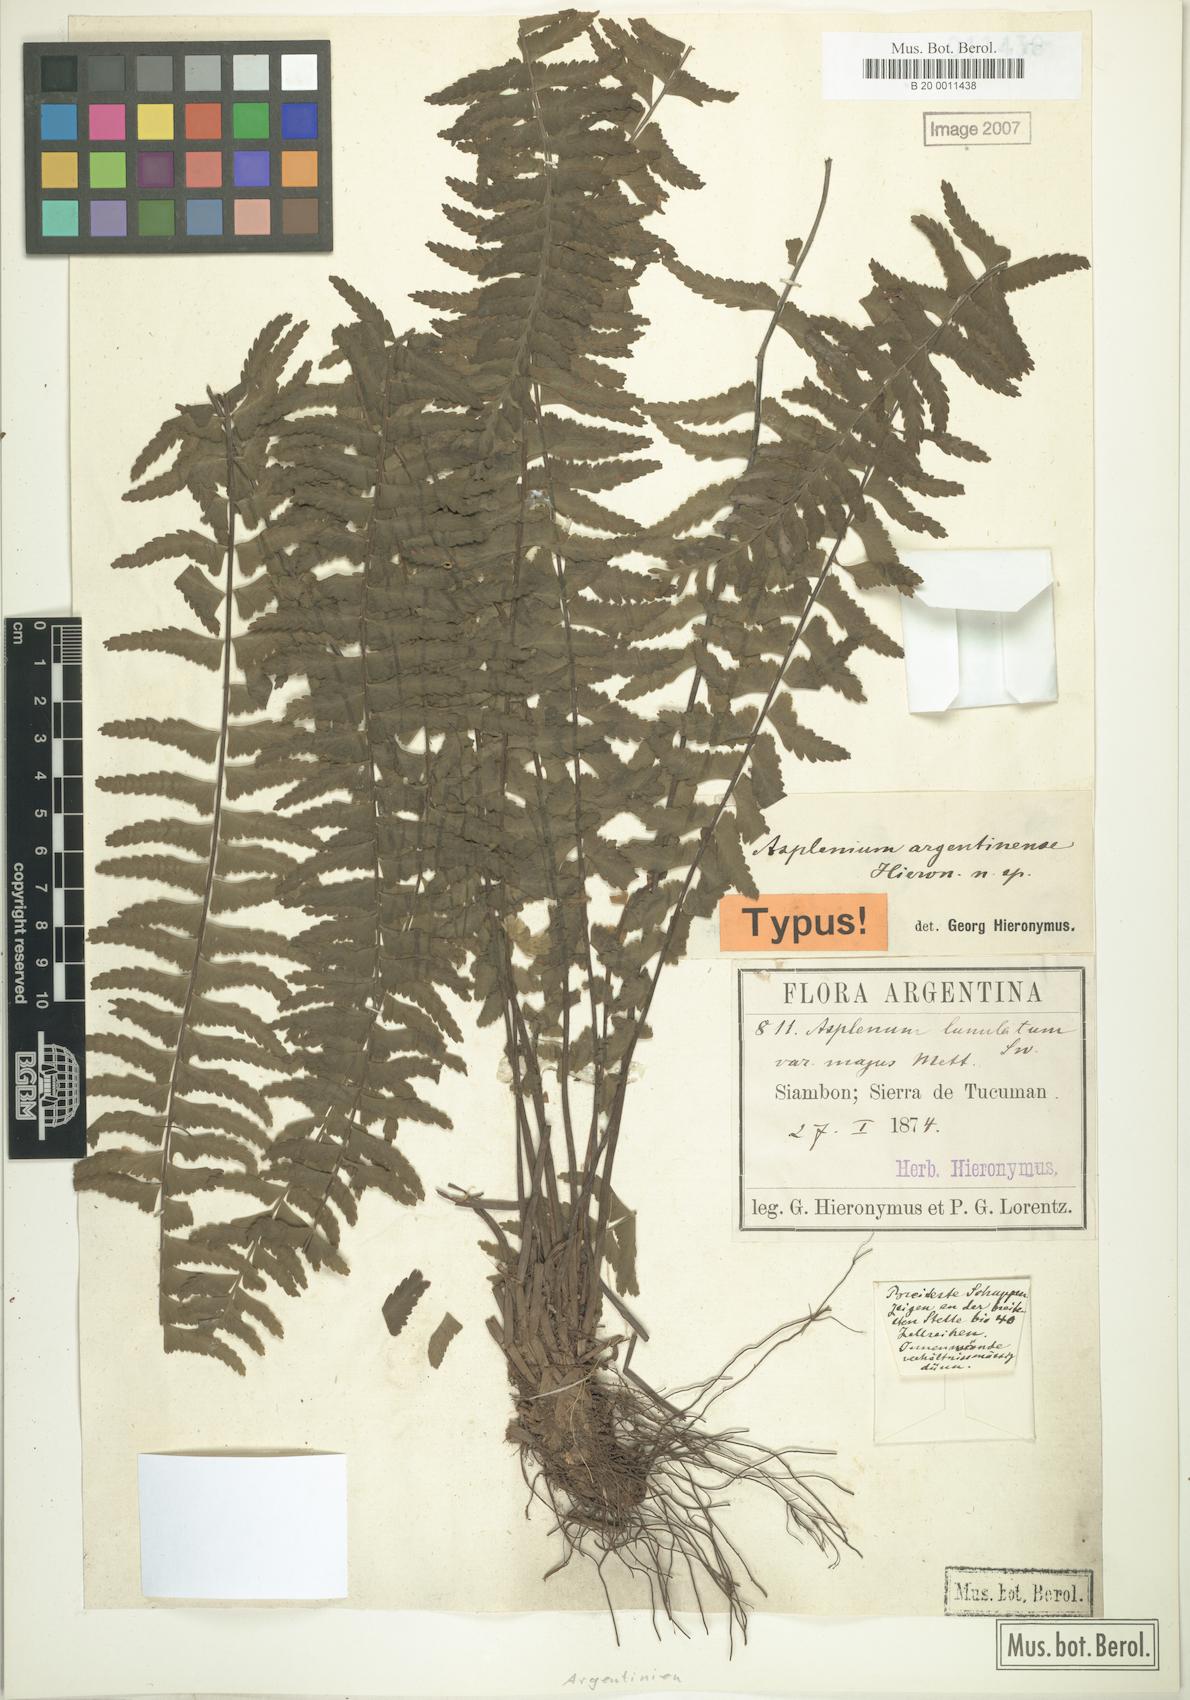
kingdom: Plantae
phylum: Tracheophyta
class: Polypodiopsida
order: Polypodiales
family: Aspleniaceae
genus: Asplenium
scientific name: Asplenium argentinum
